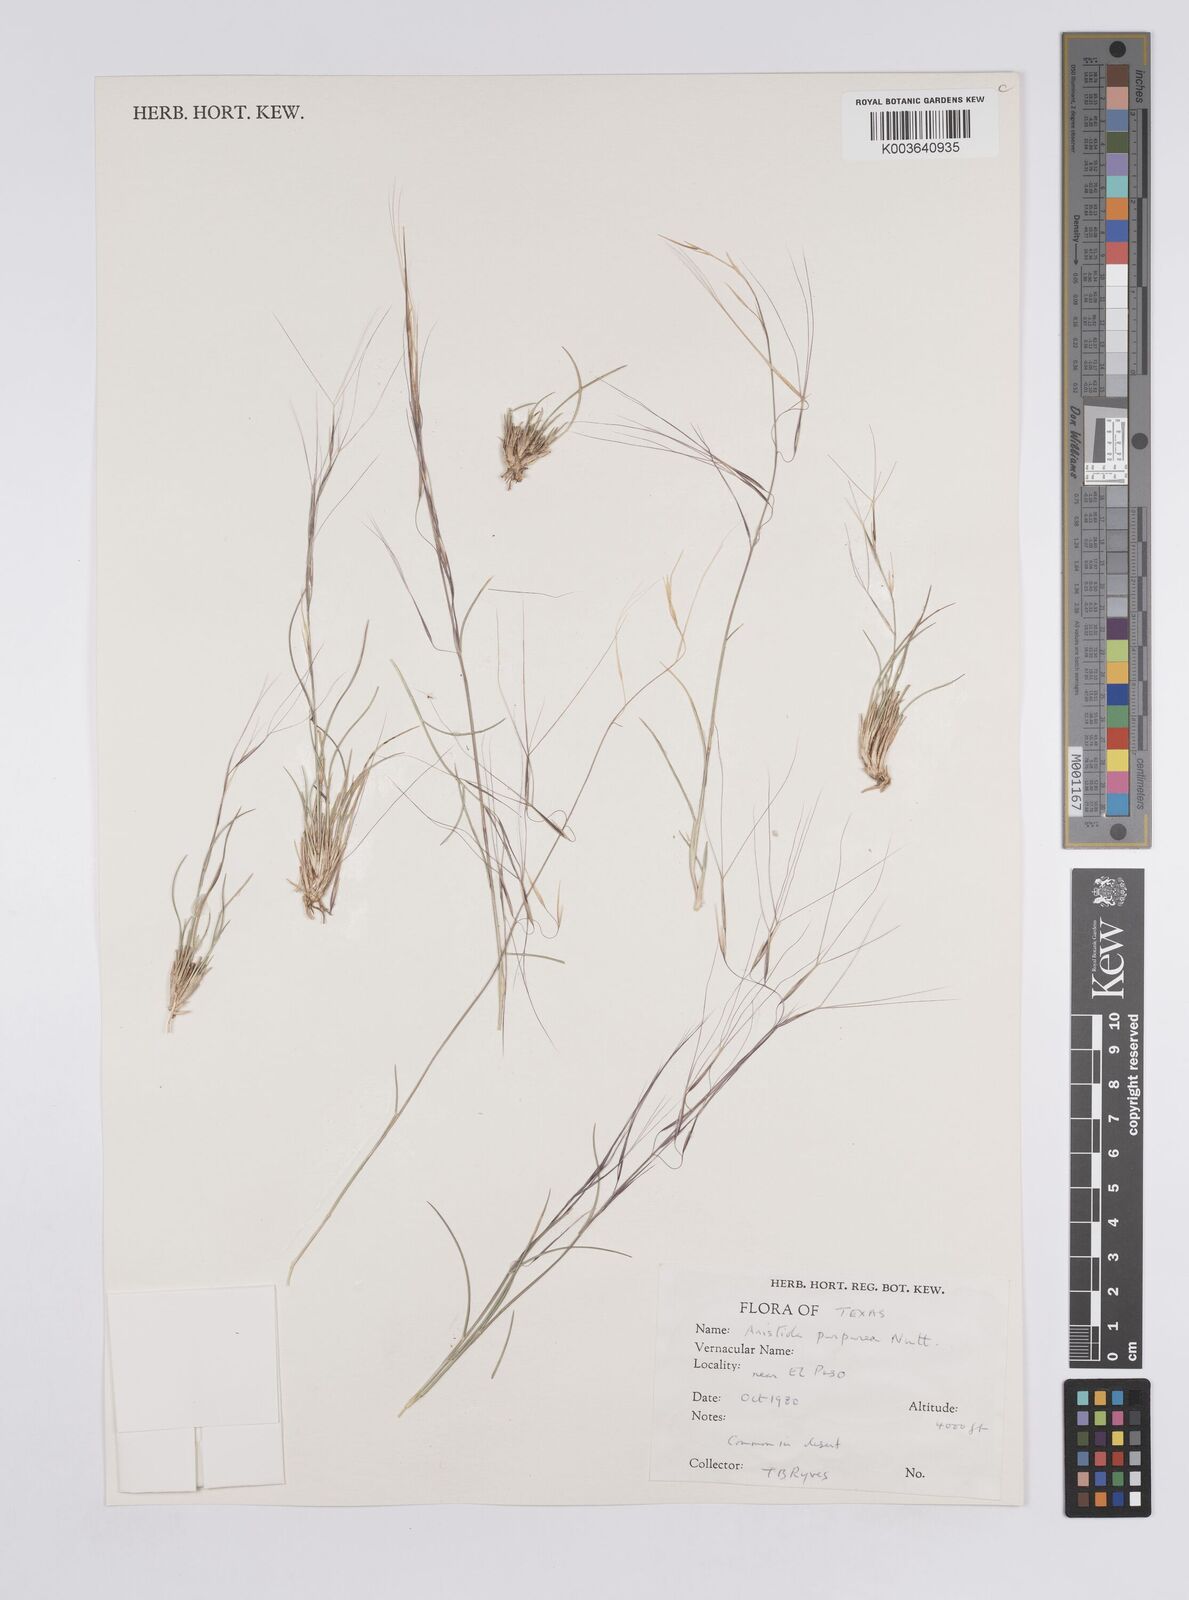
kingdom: Plantae
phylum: Tracheophyta
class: Liliopsida
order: Poales
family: Poaceae
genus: Aristida
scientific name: Aristida purpurea
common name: Purple threeawn
